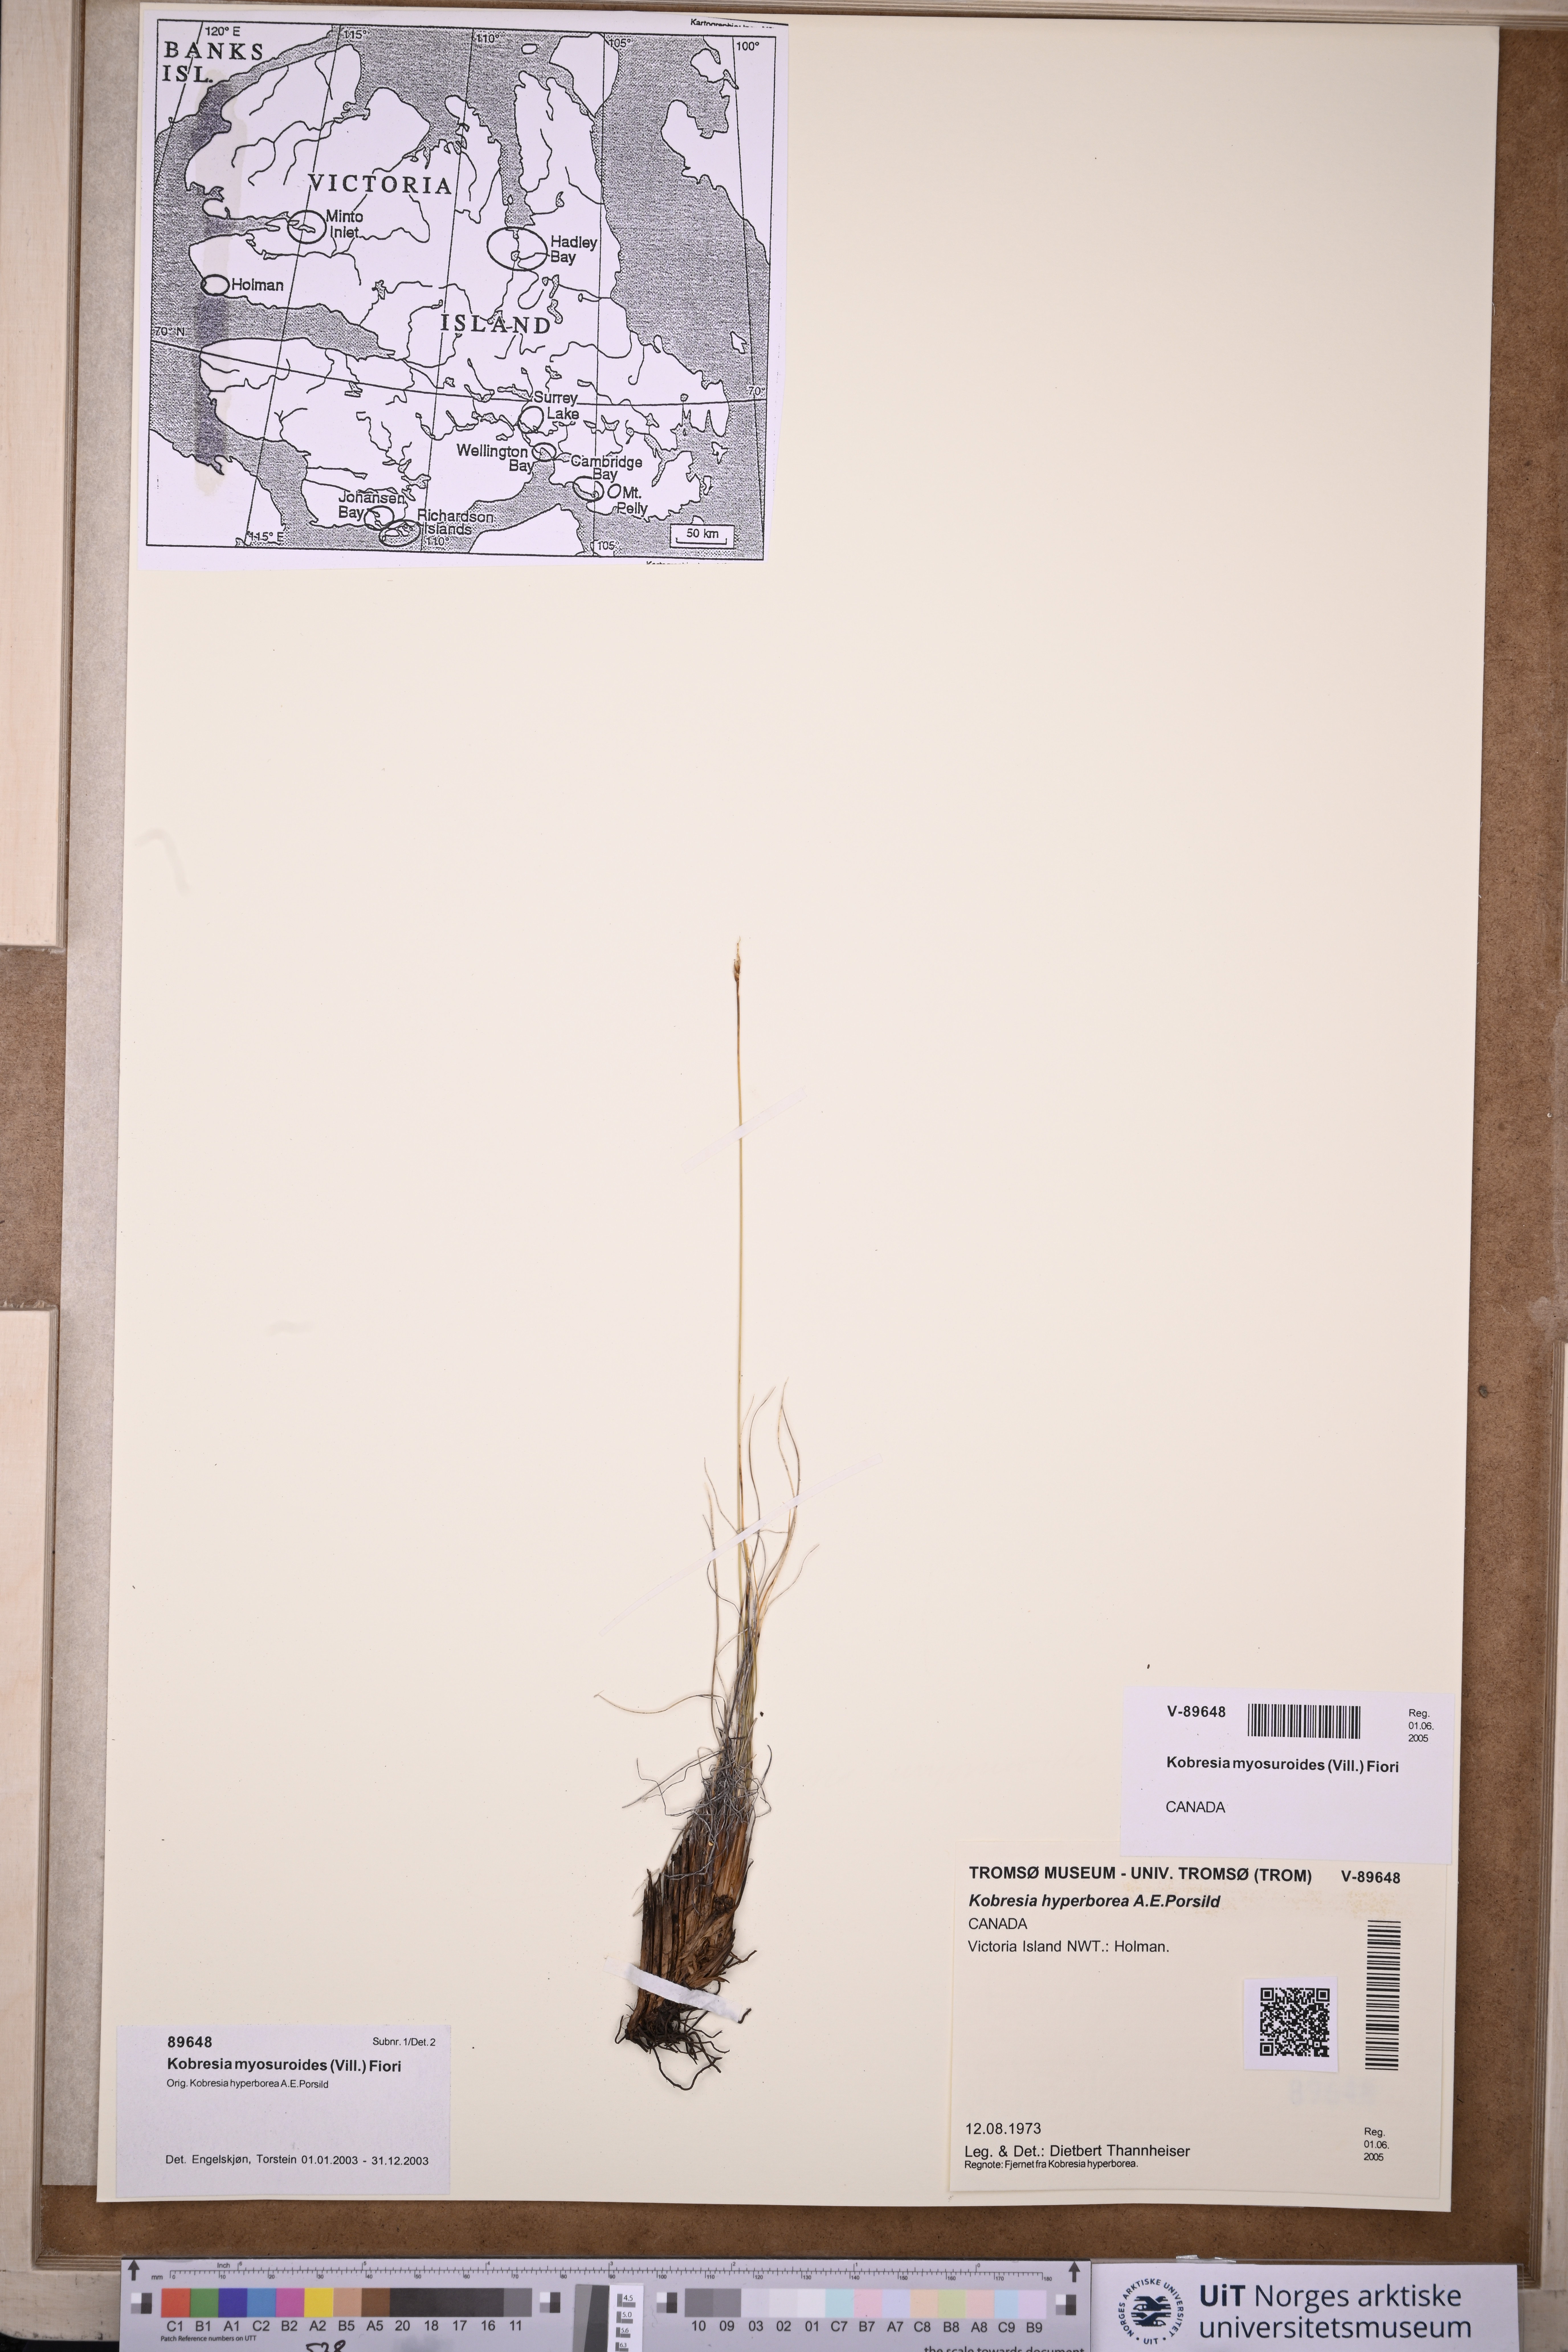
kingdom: Plantae
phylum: Tracheophyta
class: Liliopsida
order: Poales
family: Cyperaceae
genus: Carex
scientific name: Carex myosuroides
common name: Bellard's bog sedge
